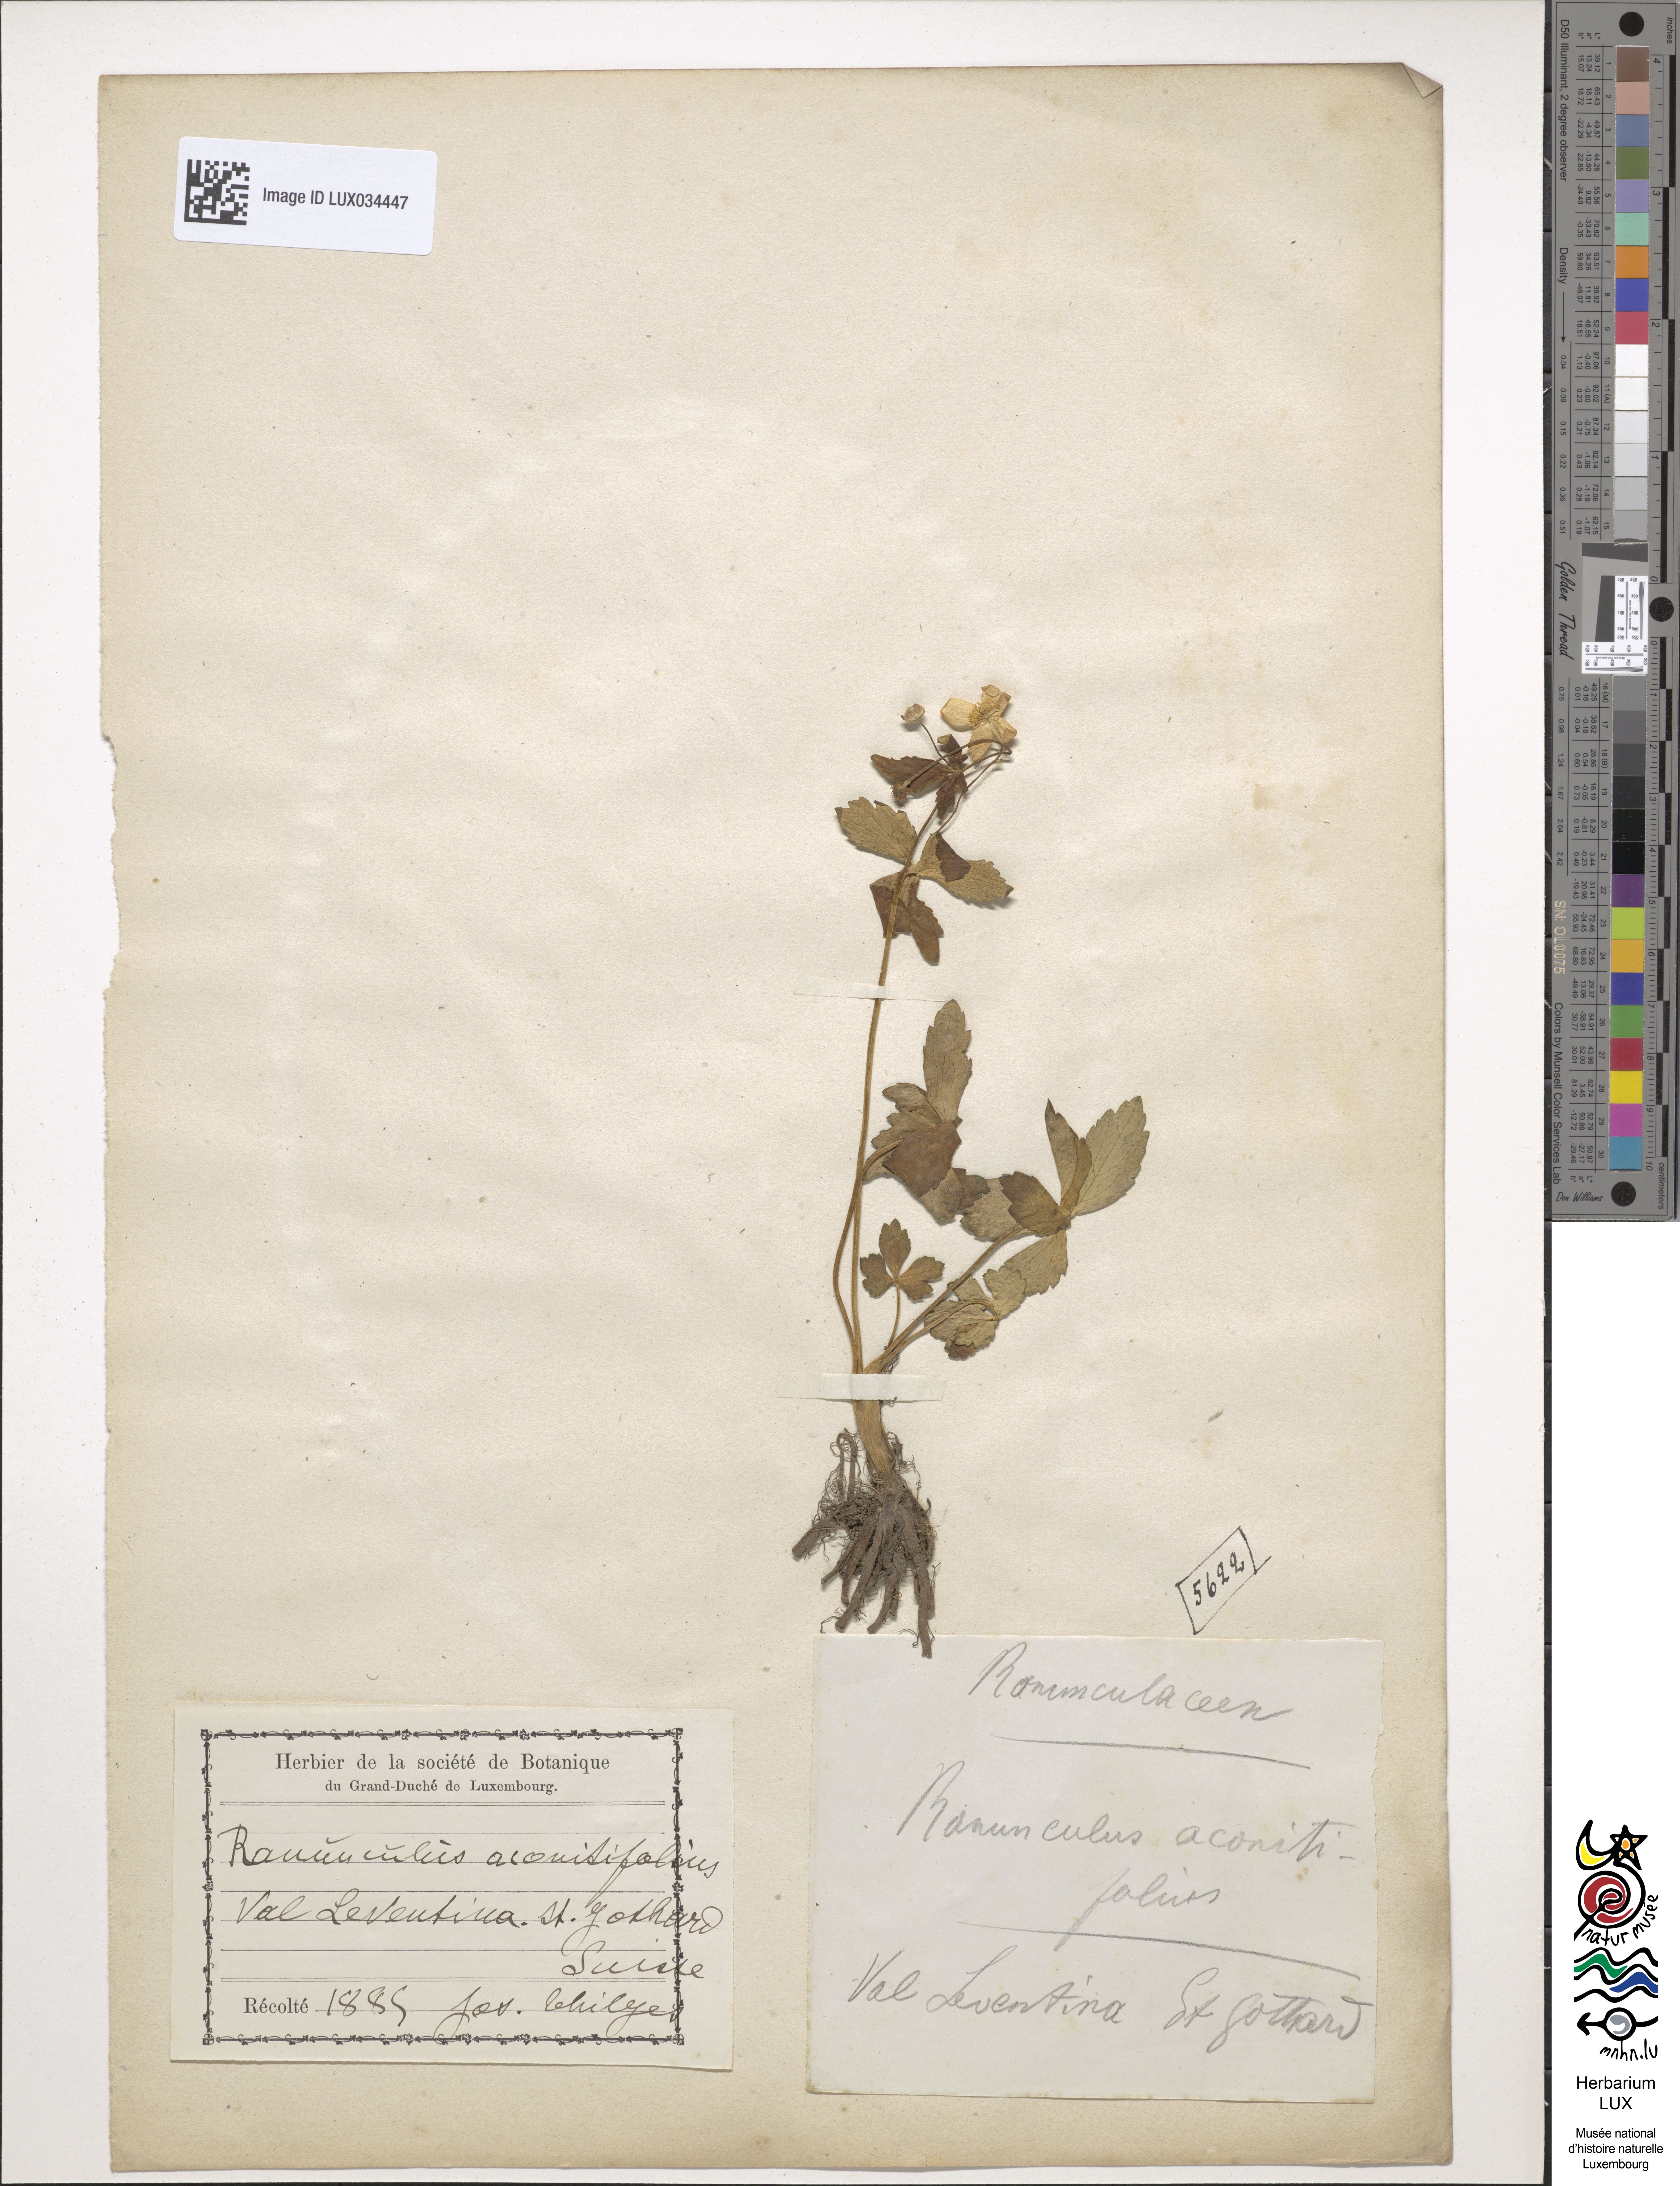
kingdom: Plantae
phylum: Tracheophyta
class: Magnoliopsida
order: Ranunculales
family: Ranunculaceae
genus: Ranunculus
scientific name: Ranunculus aconitifolius
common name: Aconite-leaved buttercup
